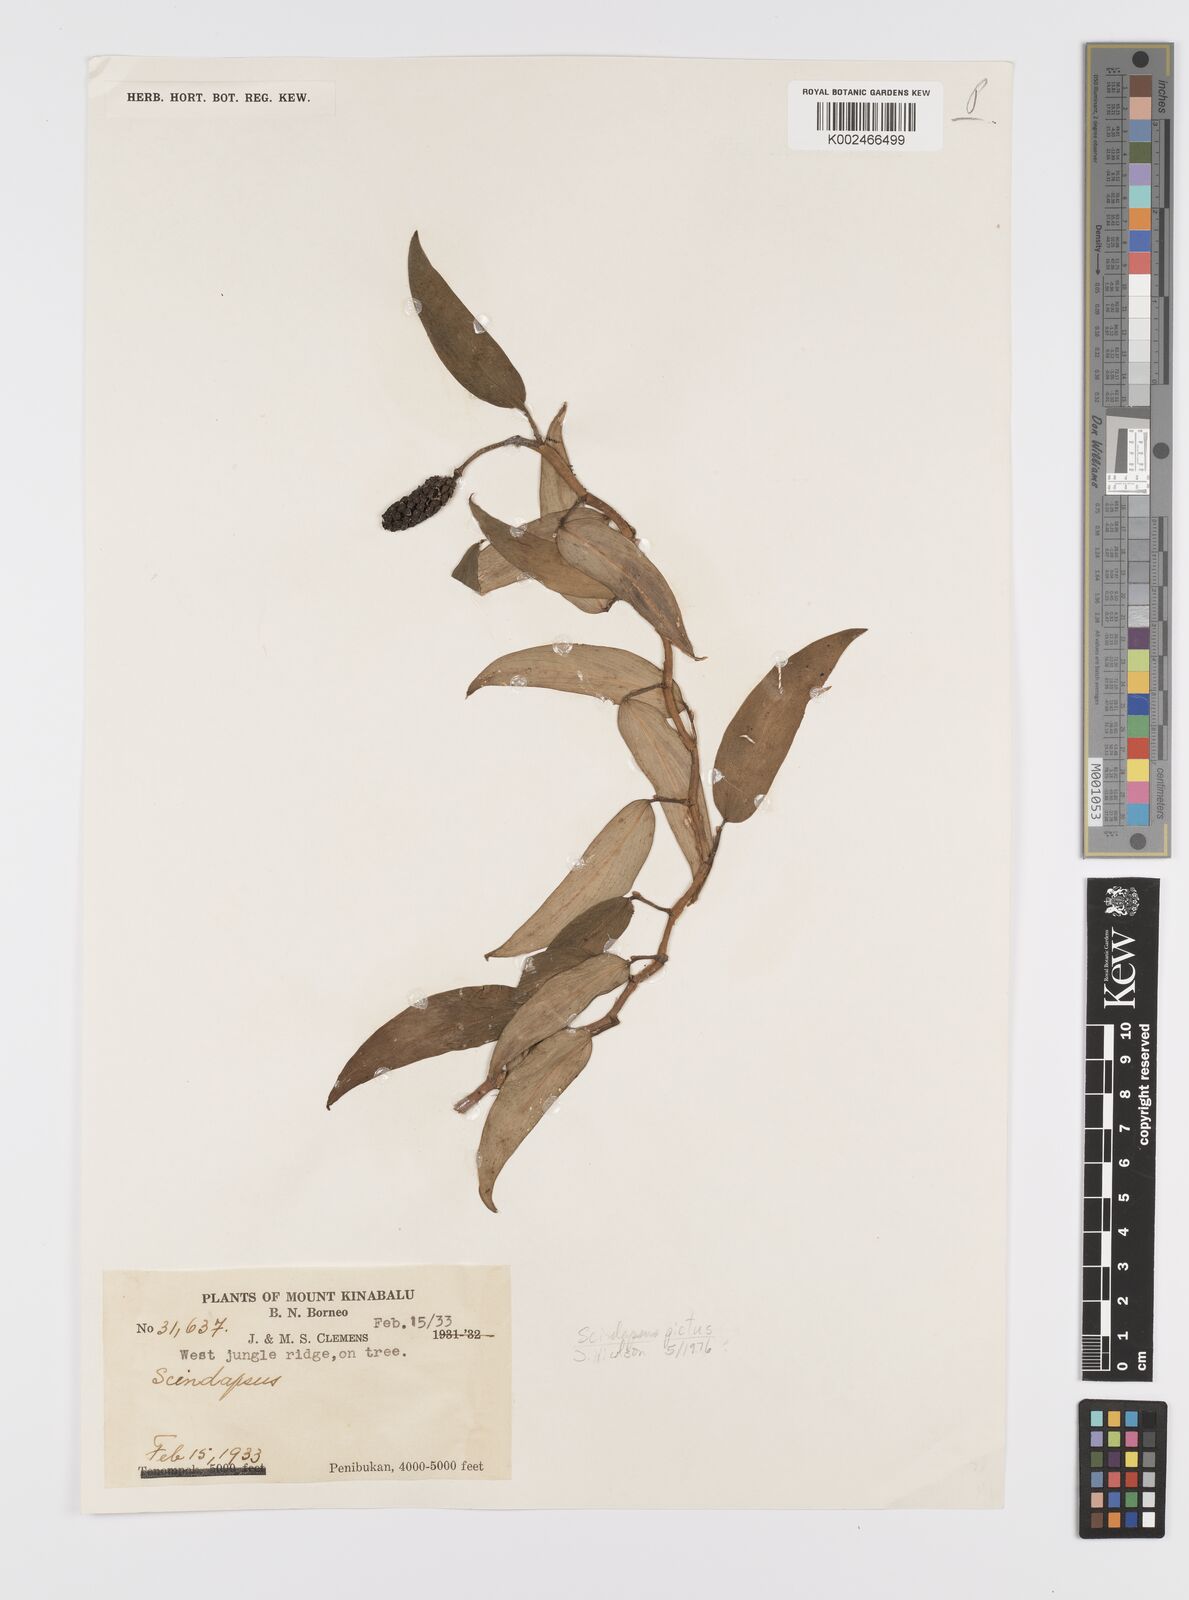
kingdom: Plantae
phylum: Tracheophyta
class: Liliopsida
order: Alismatales
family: Araceae
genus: Scindapsus
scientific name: Scindapsus pictus
